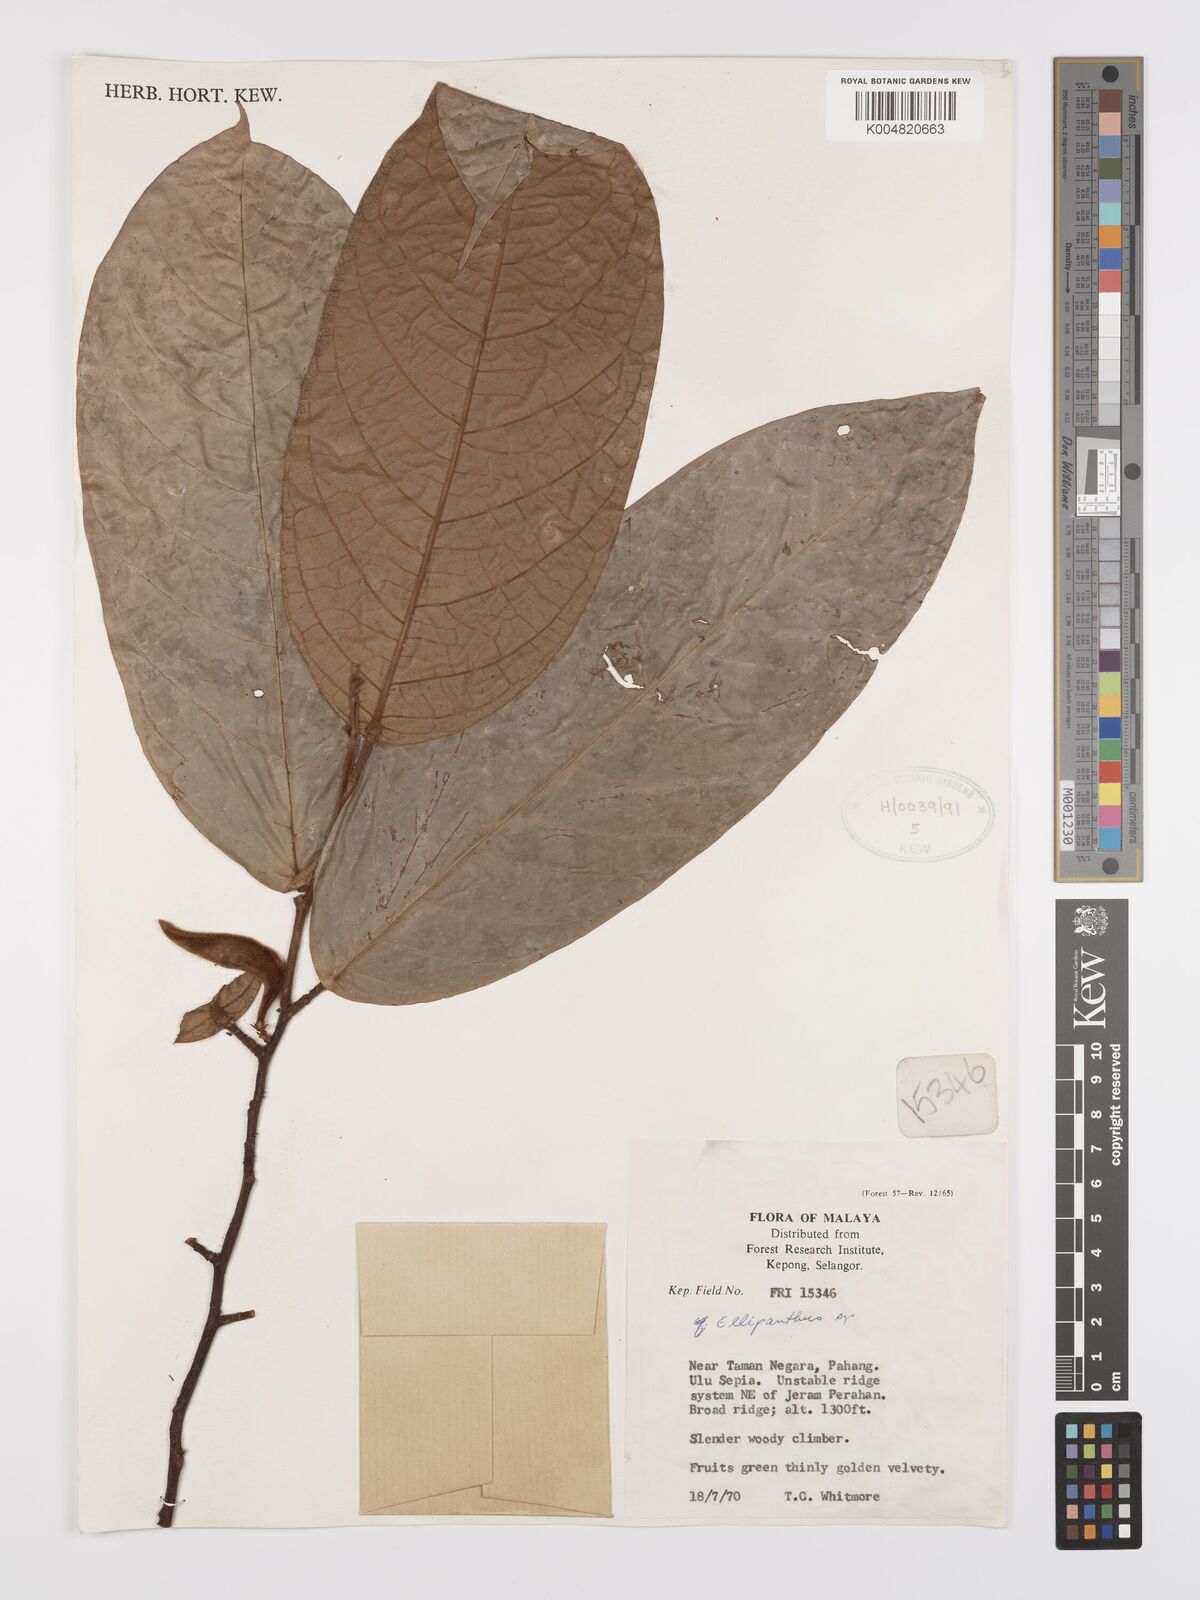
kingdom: Plantae
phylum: Tracheophyta
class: Magnoliopsida
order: Oxalidales
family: Connaraceae
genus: Ellipanthus
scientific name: Ellipanthus
